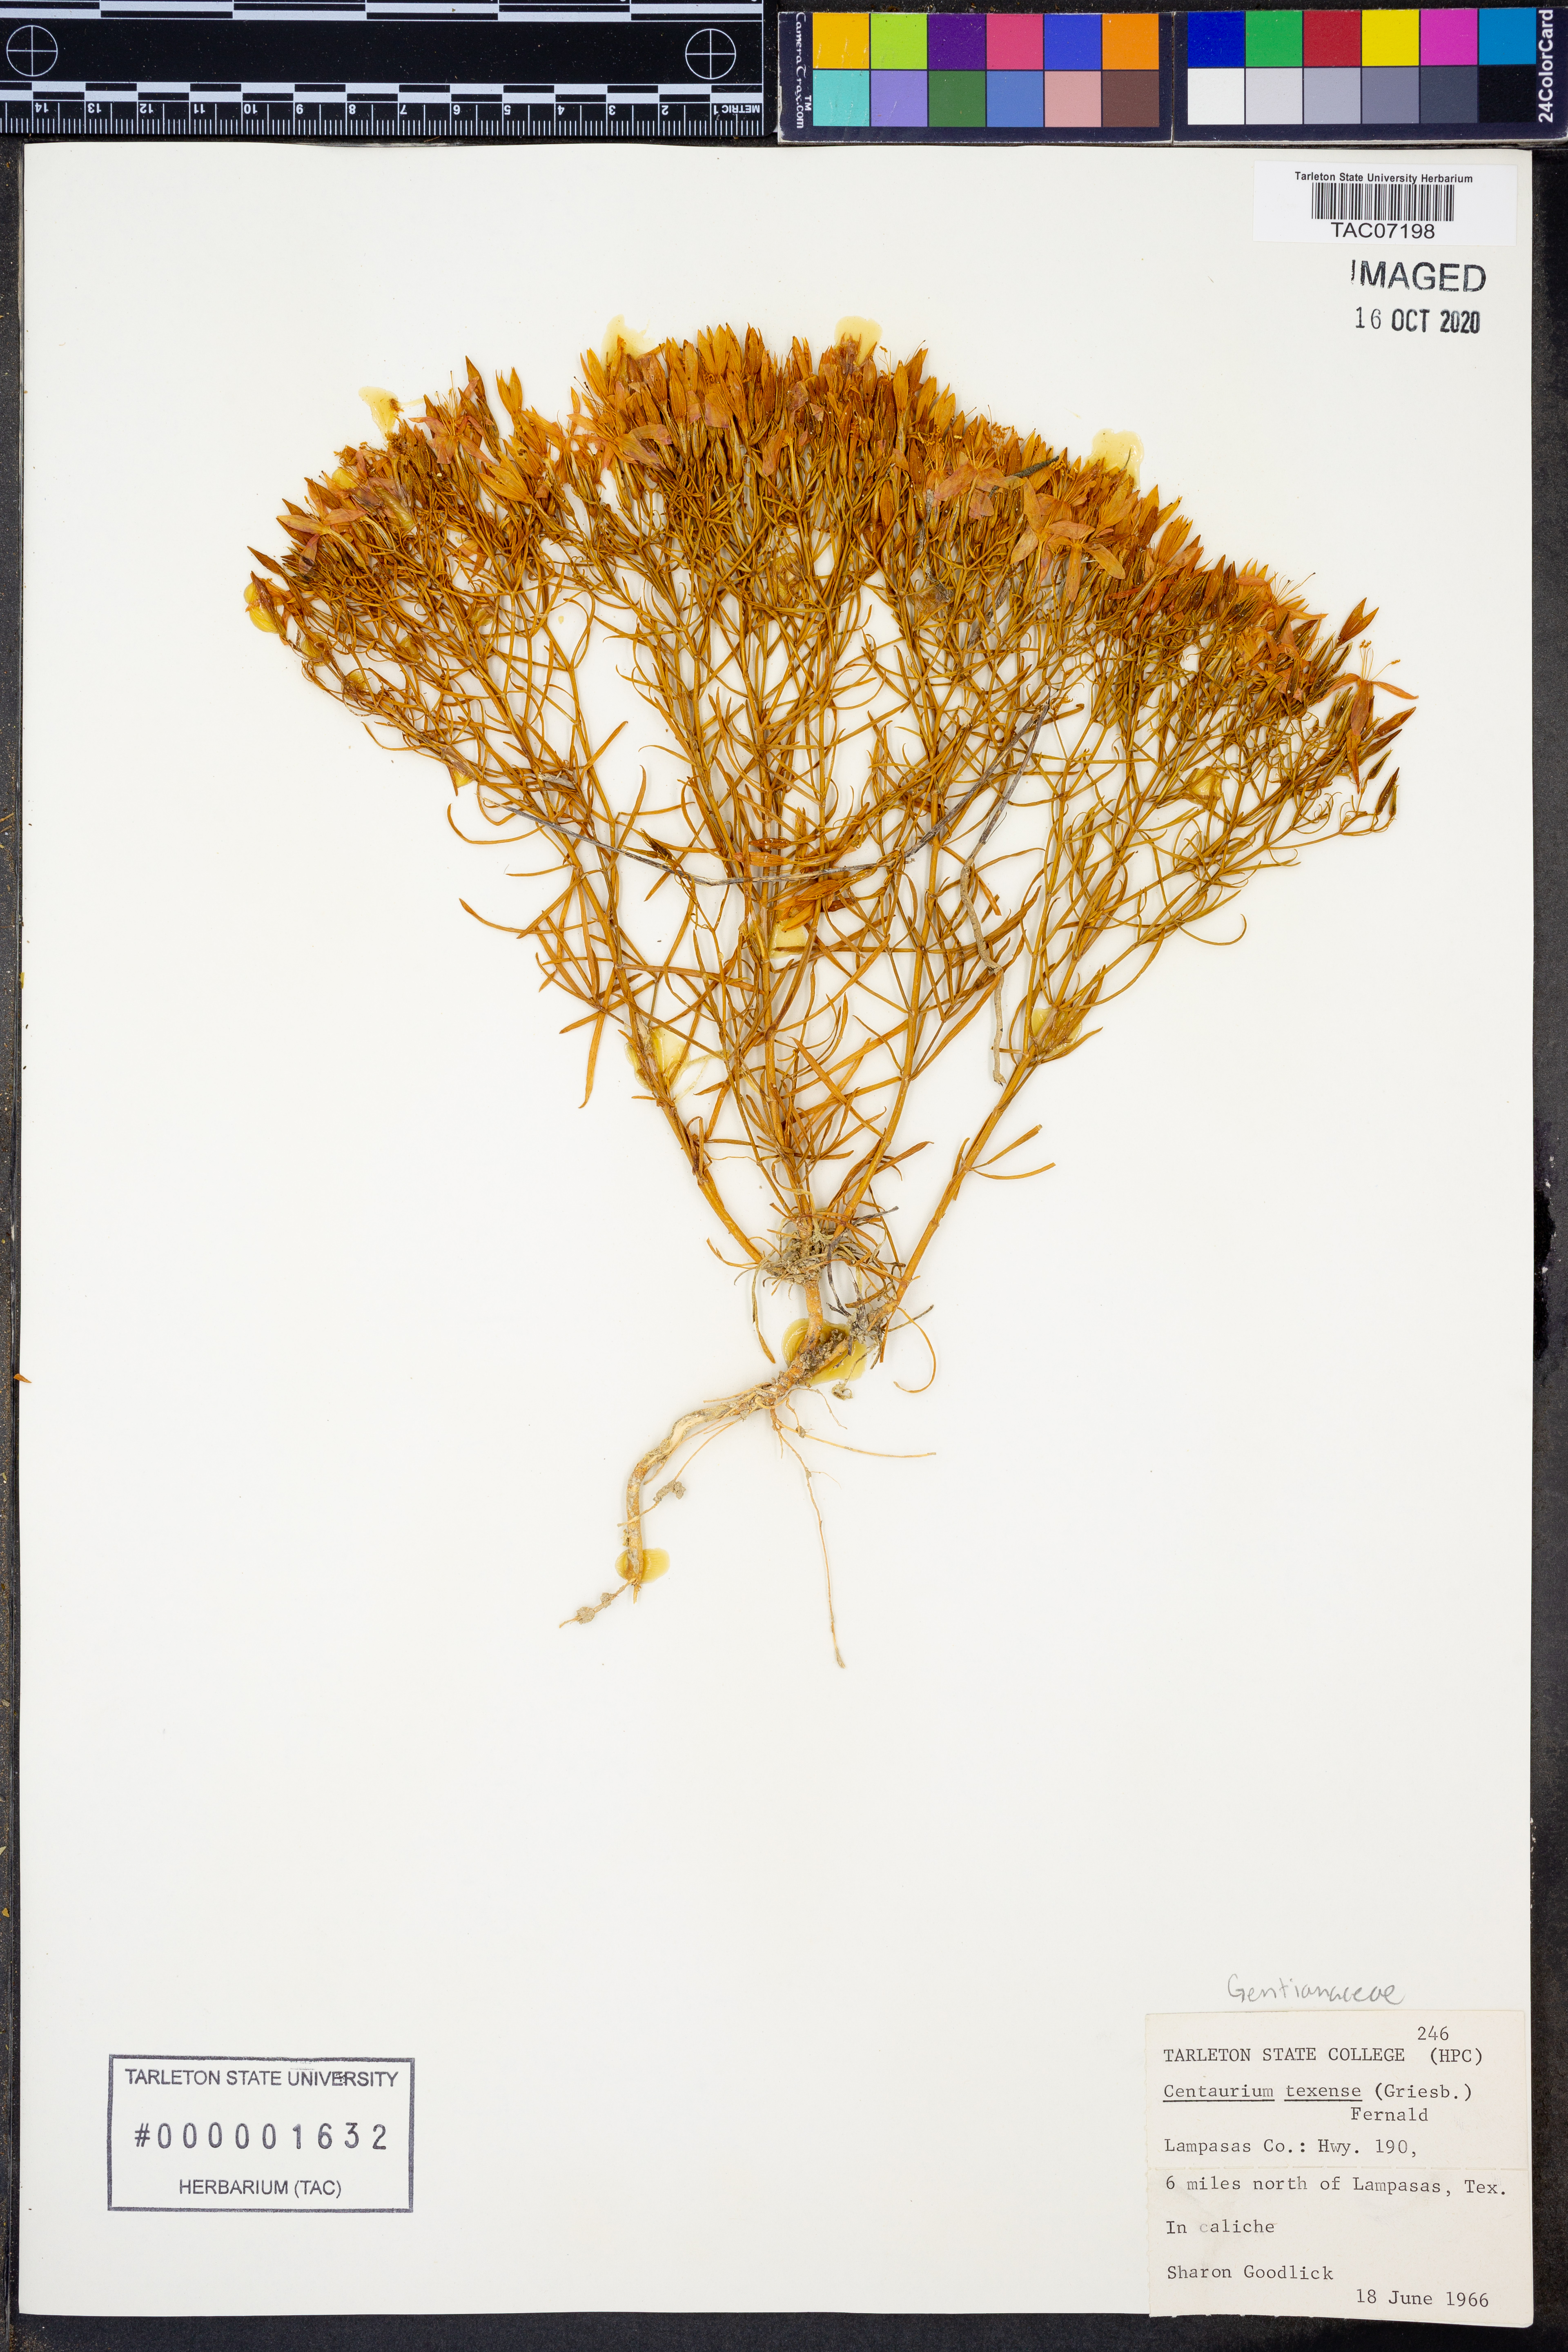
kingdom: Plantae
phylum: Tracheophyta
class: Magnoliopsida
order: Gentianales
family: Gentianaceae
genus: Zeltnera
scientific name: Zeltnera texensis
